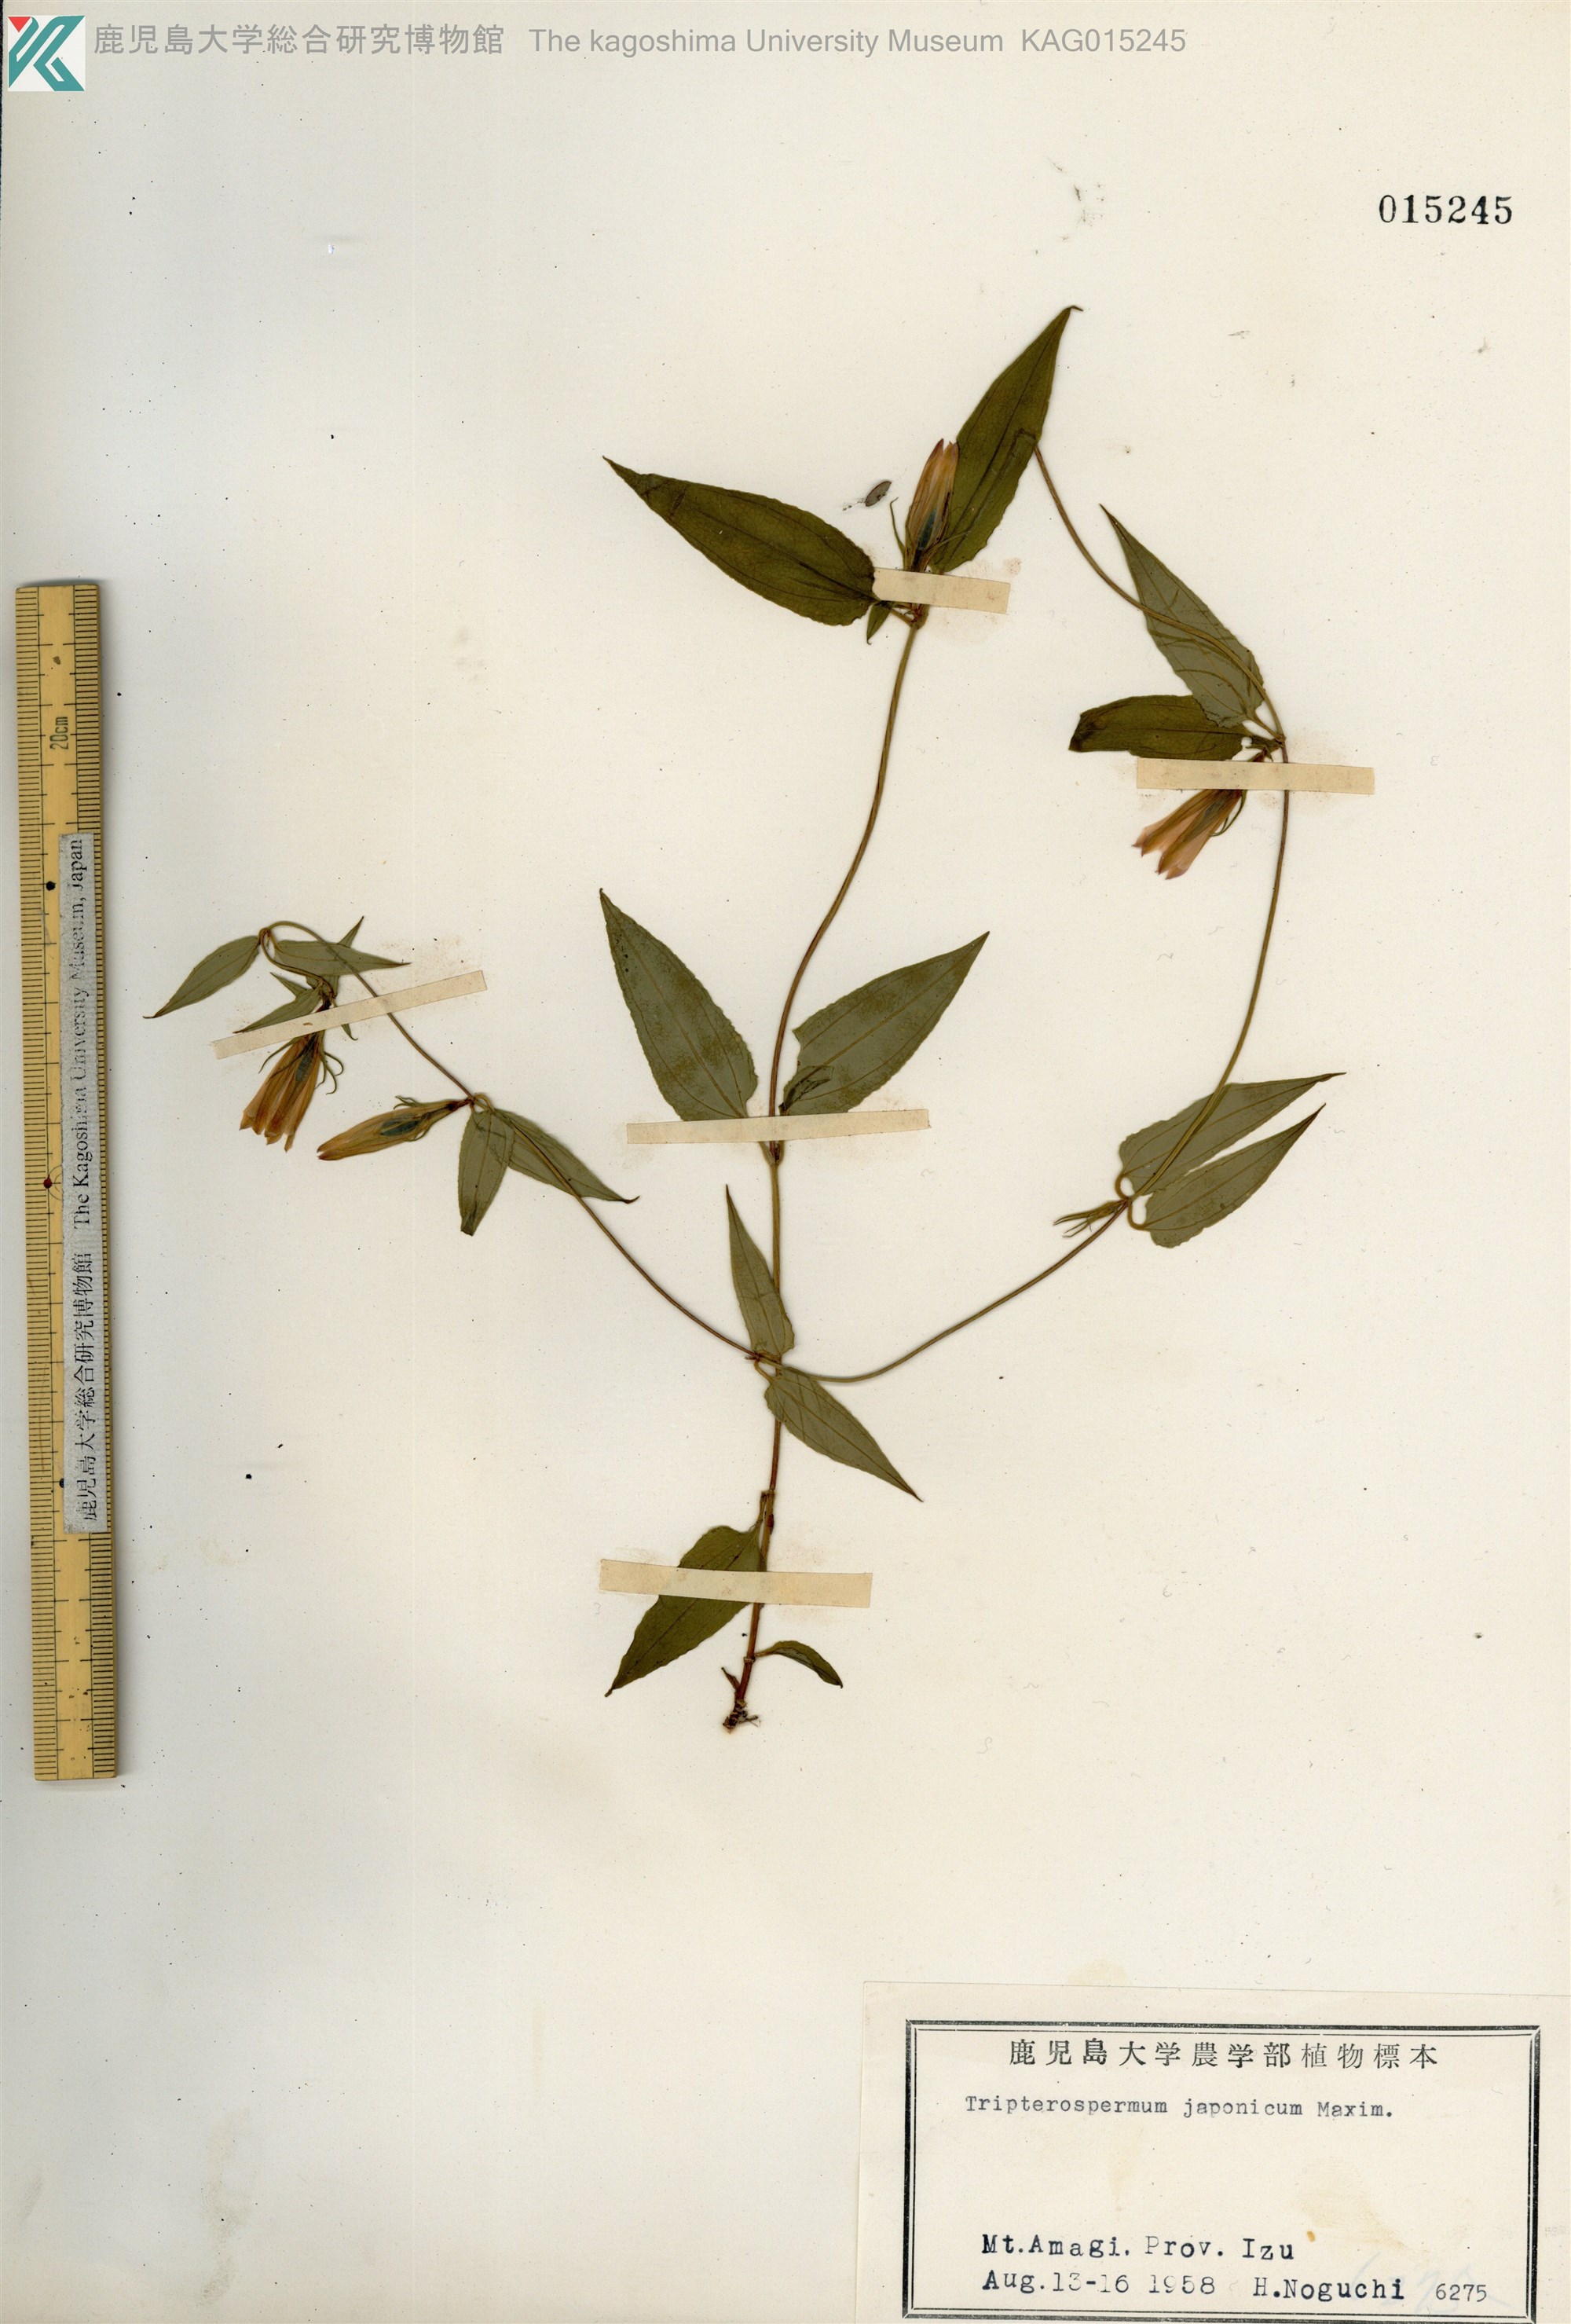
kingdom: Plantae
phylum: Tracheophyta
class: Magnoliopsida
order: Gentianales
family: Gentianaceae
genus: Tripterospermum
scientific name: Tripterospermum trinervium
